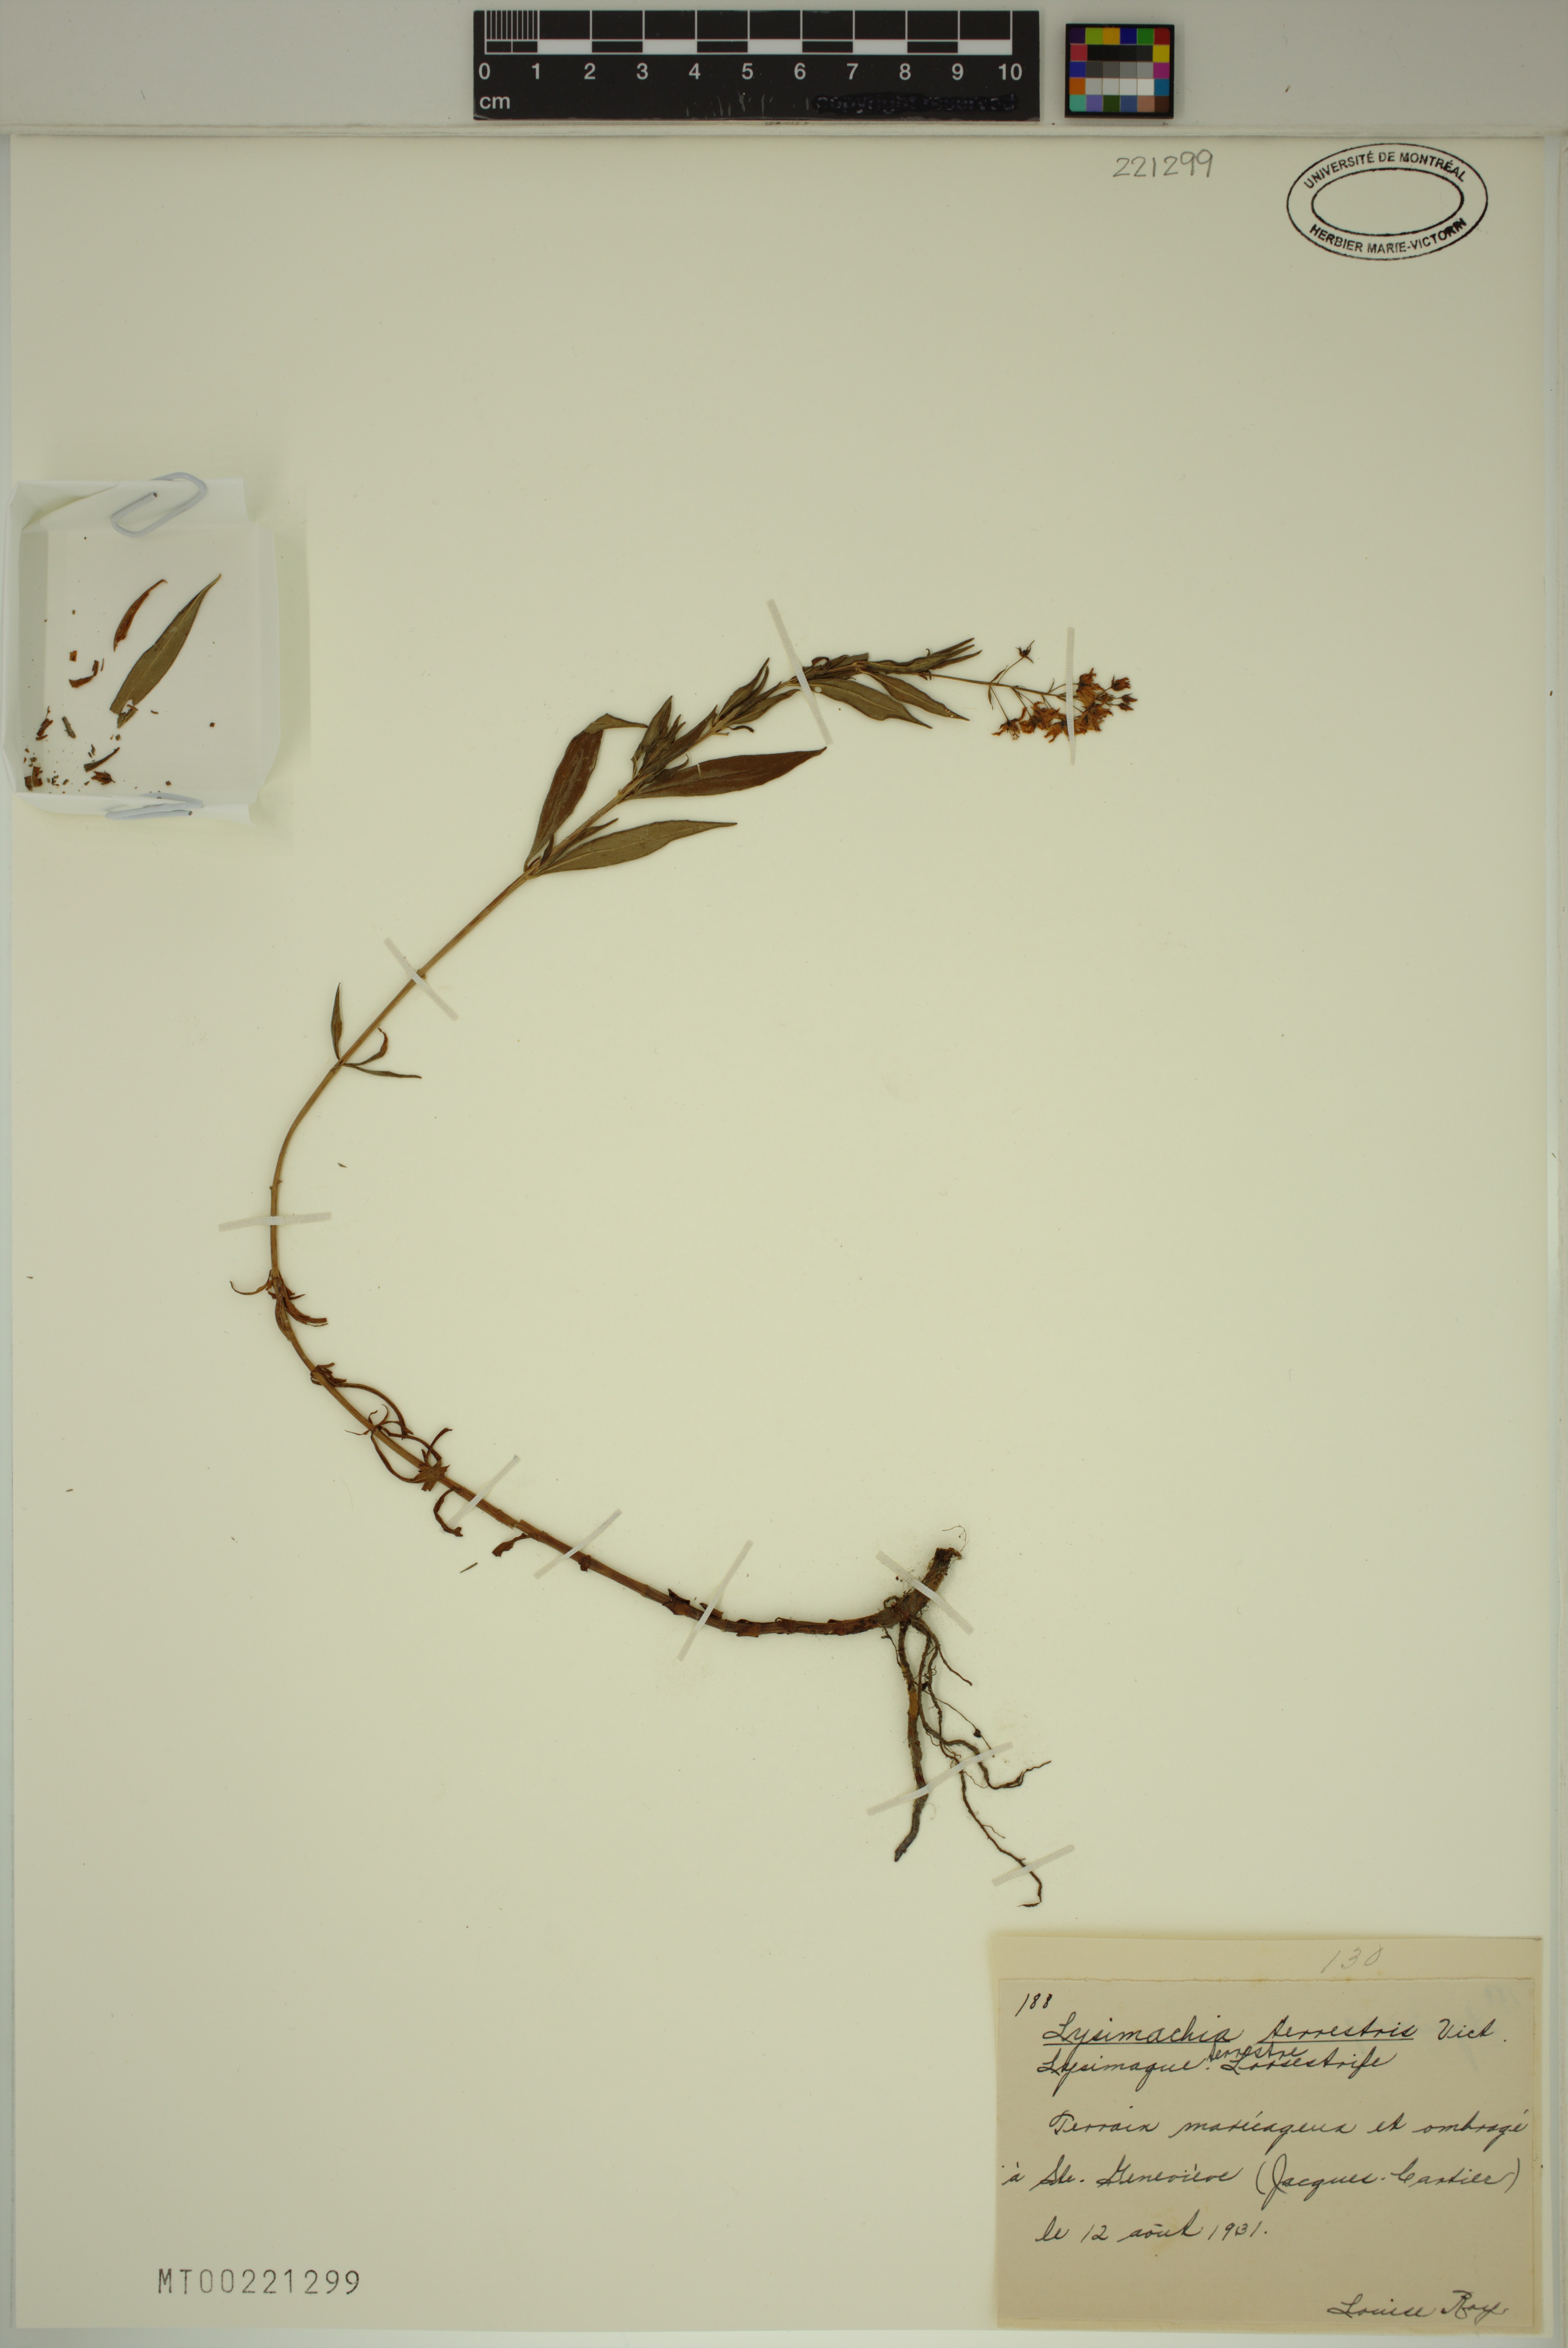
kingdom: Plantae
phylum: Tracheophyta
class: Magnoliopsida
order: Ericales
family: Primulaceae
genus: Lysimachia
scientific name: Lysimachia terrestris
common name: Lake loosestrife
